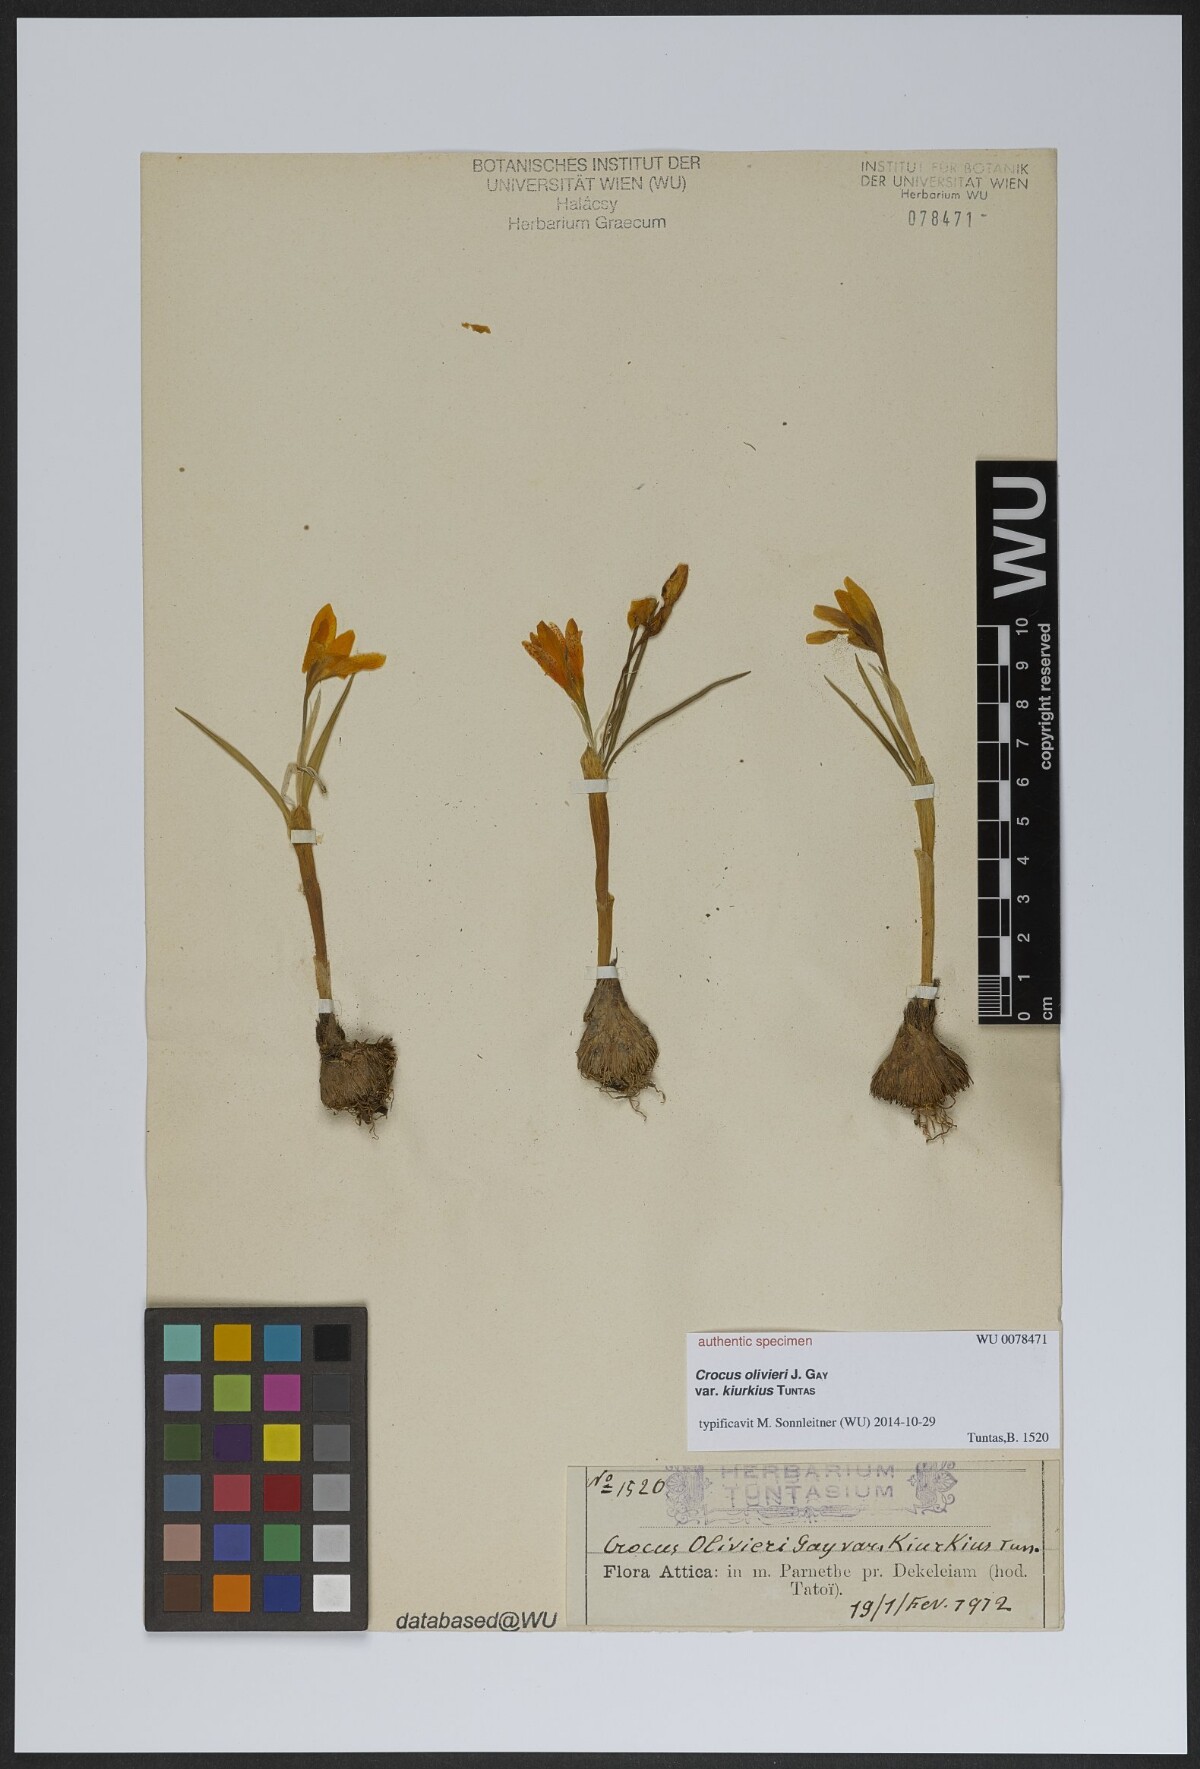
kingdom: Plantae
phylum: Tracheophyta
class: Liliopsida
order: Asparagales
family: Iridaceae
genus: Crocus
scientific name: Crocus olivieri
